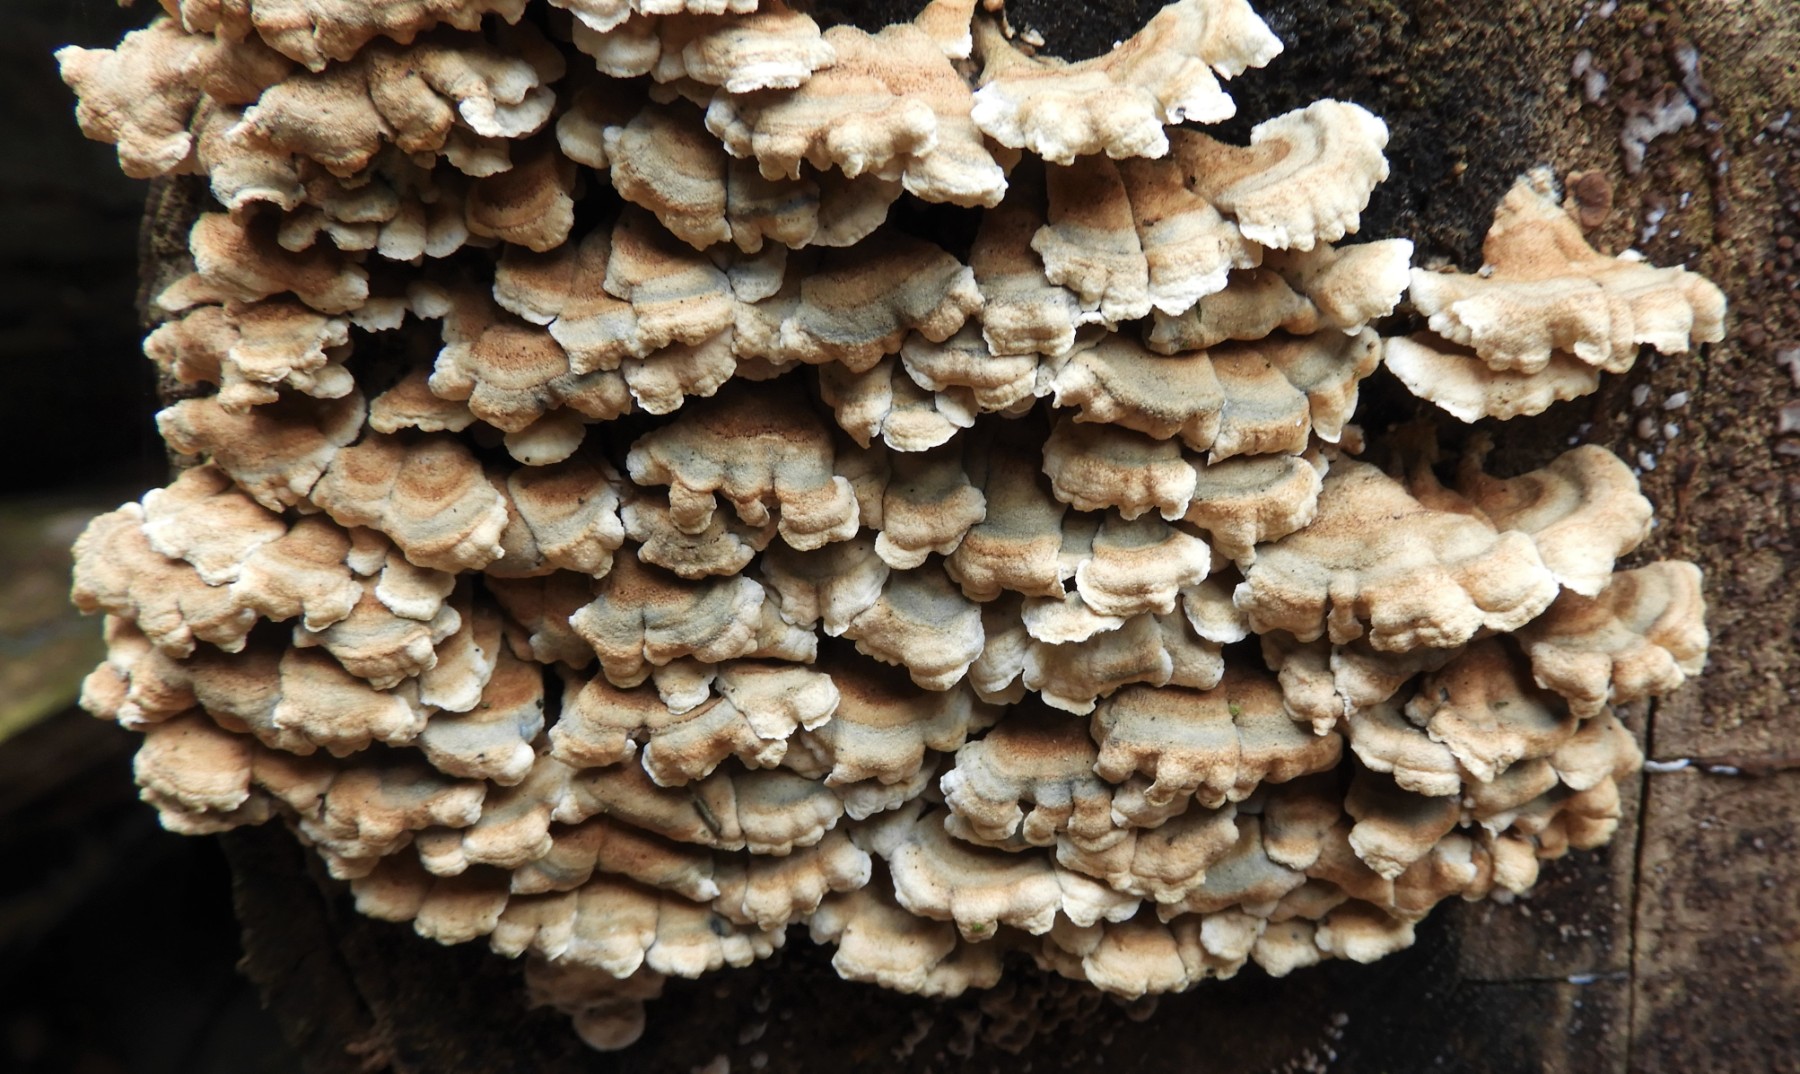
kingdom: Fungi
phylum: Basidiomycota
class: Agaricomycetes
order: Amylocorticiales
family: Amylocorticiaceae
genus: Plicaturopsis
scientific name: Plicaturopsis crispa
